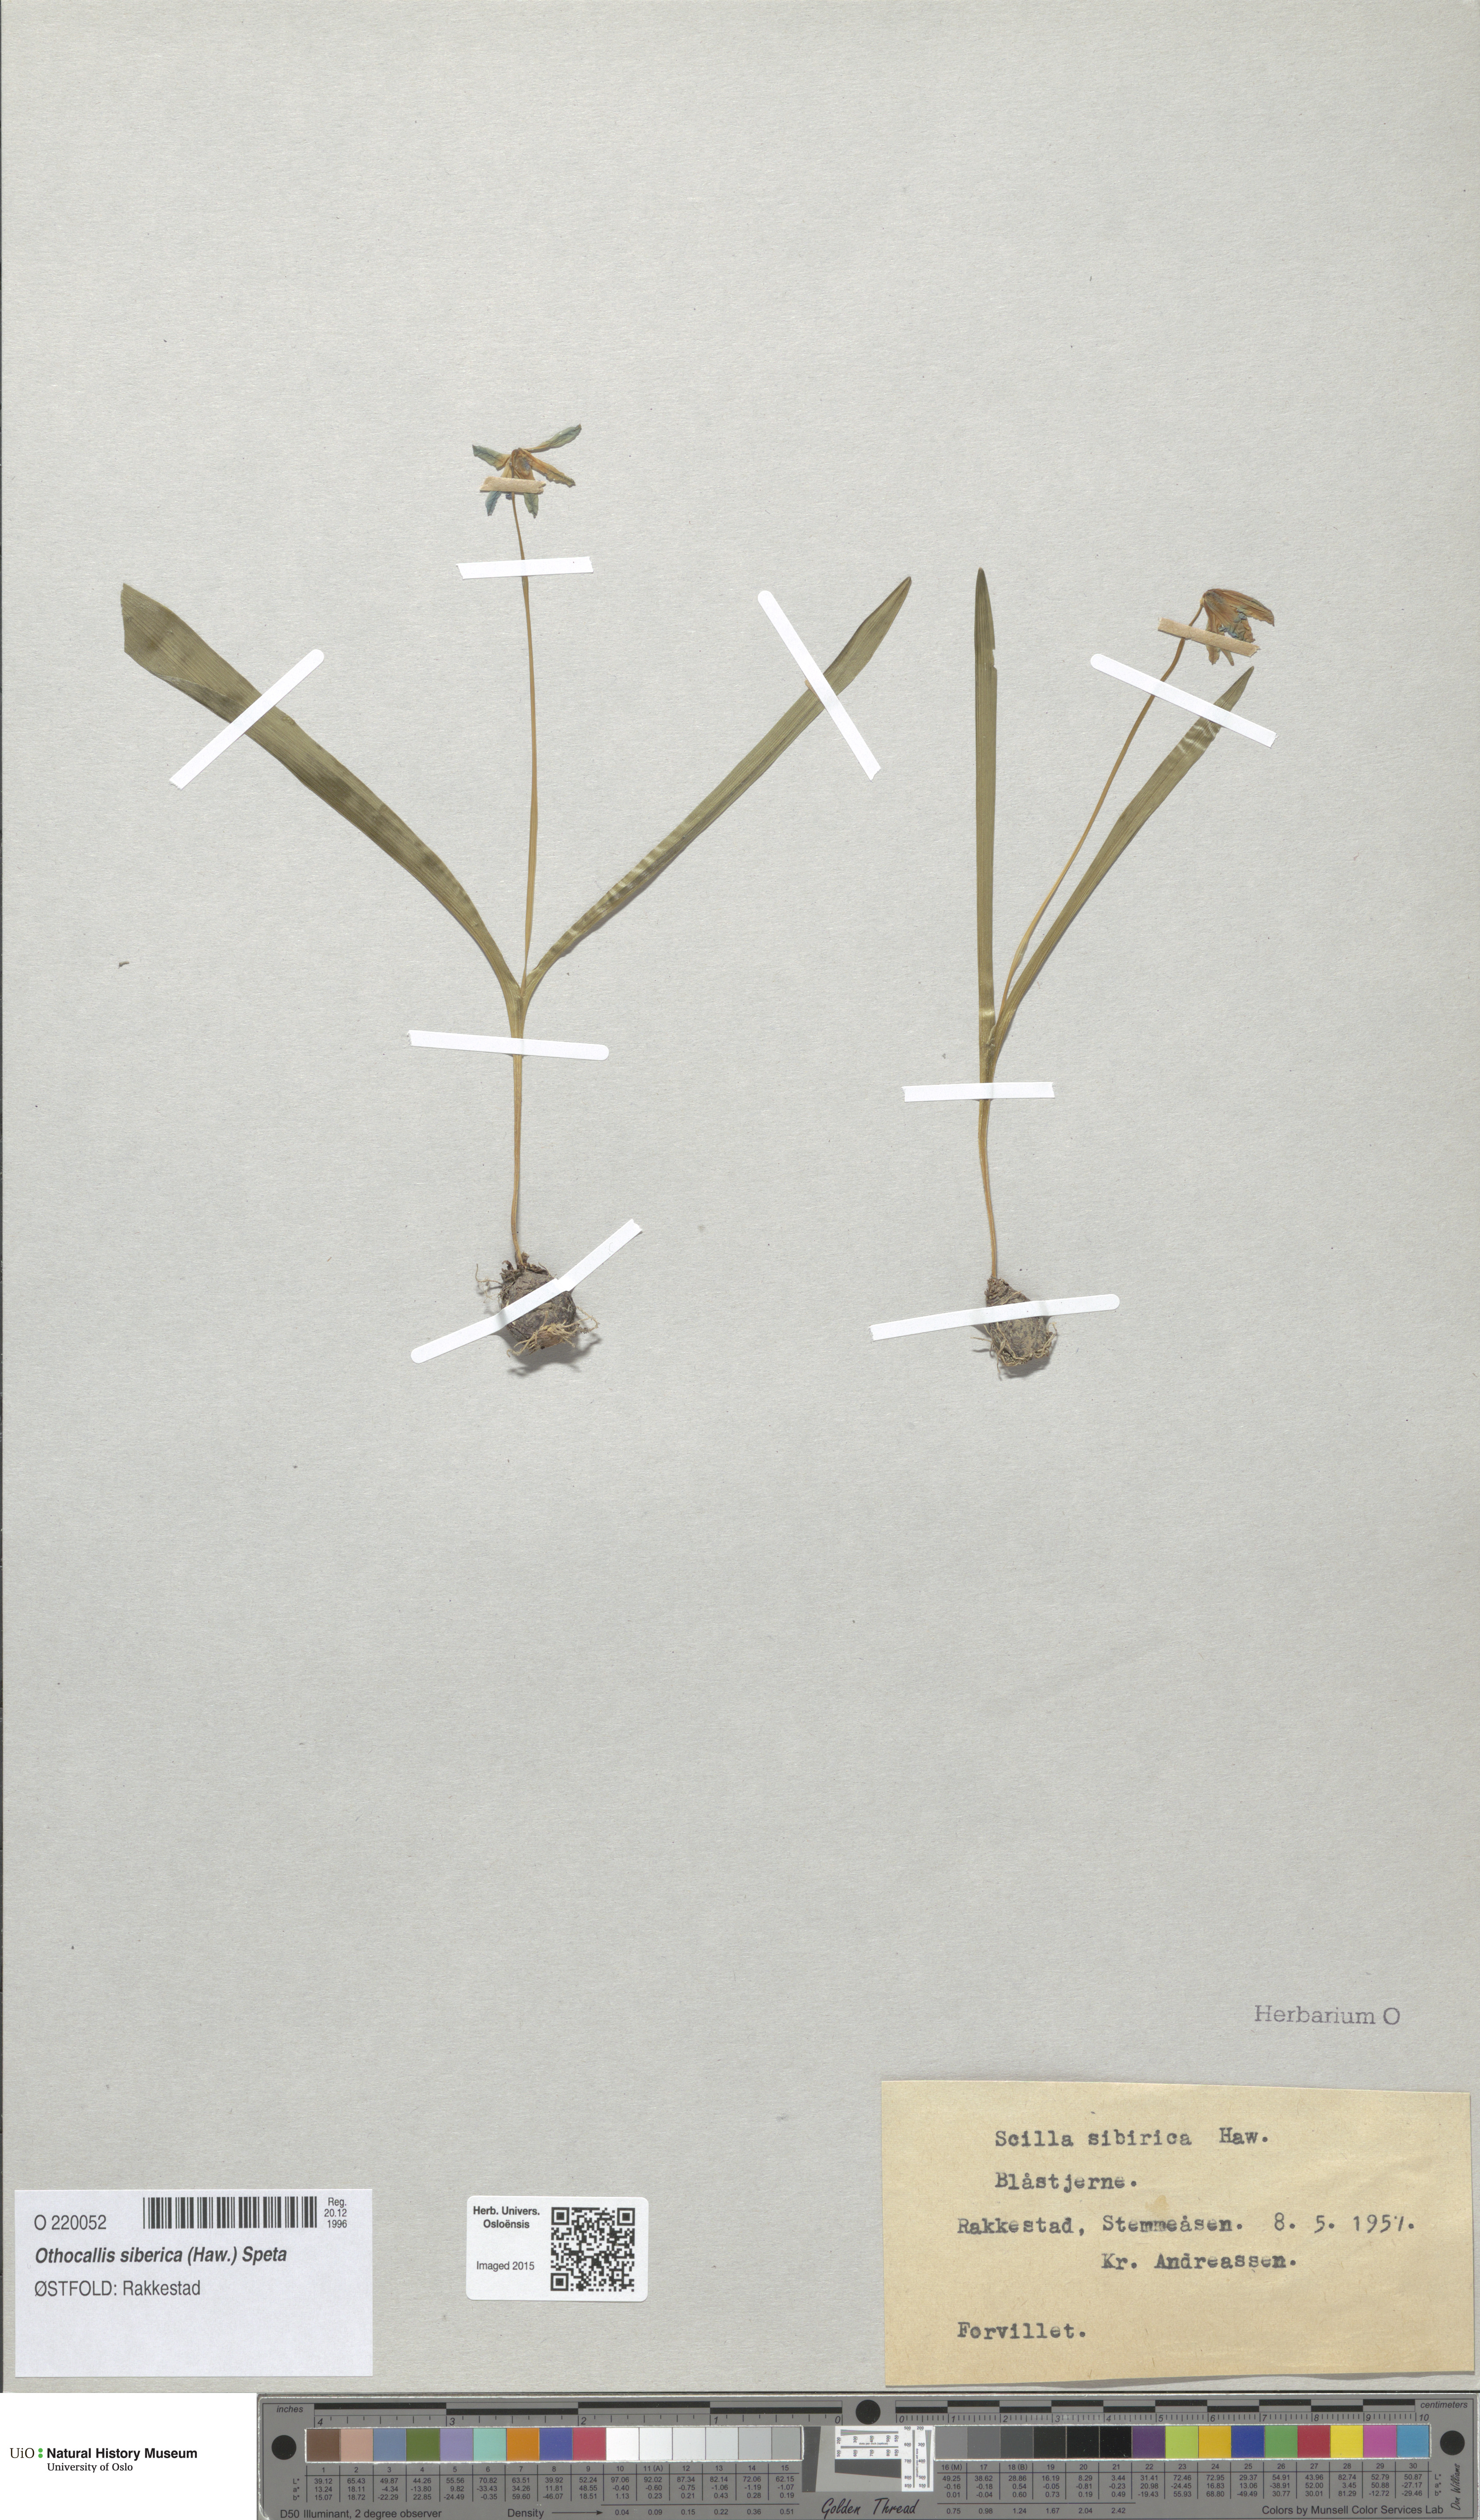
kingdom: Plantae
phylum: Tracheophyta
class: Liliopsida
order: Asparagales
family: Asparagaceae
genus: Scilla
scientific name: Scilla siberica
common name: Siberian squill
